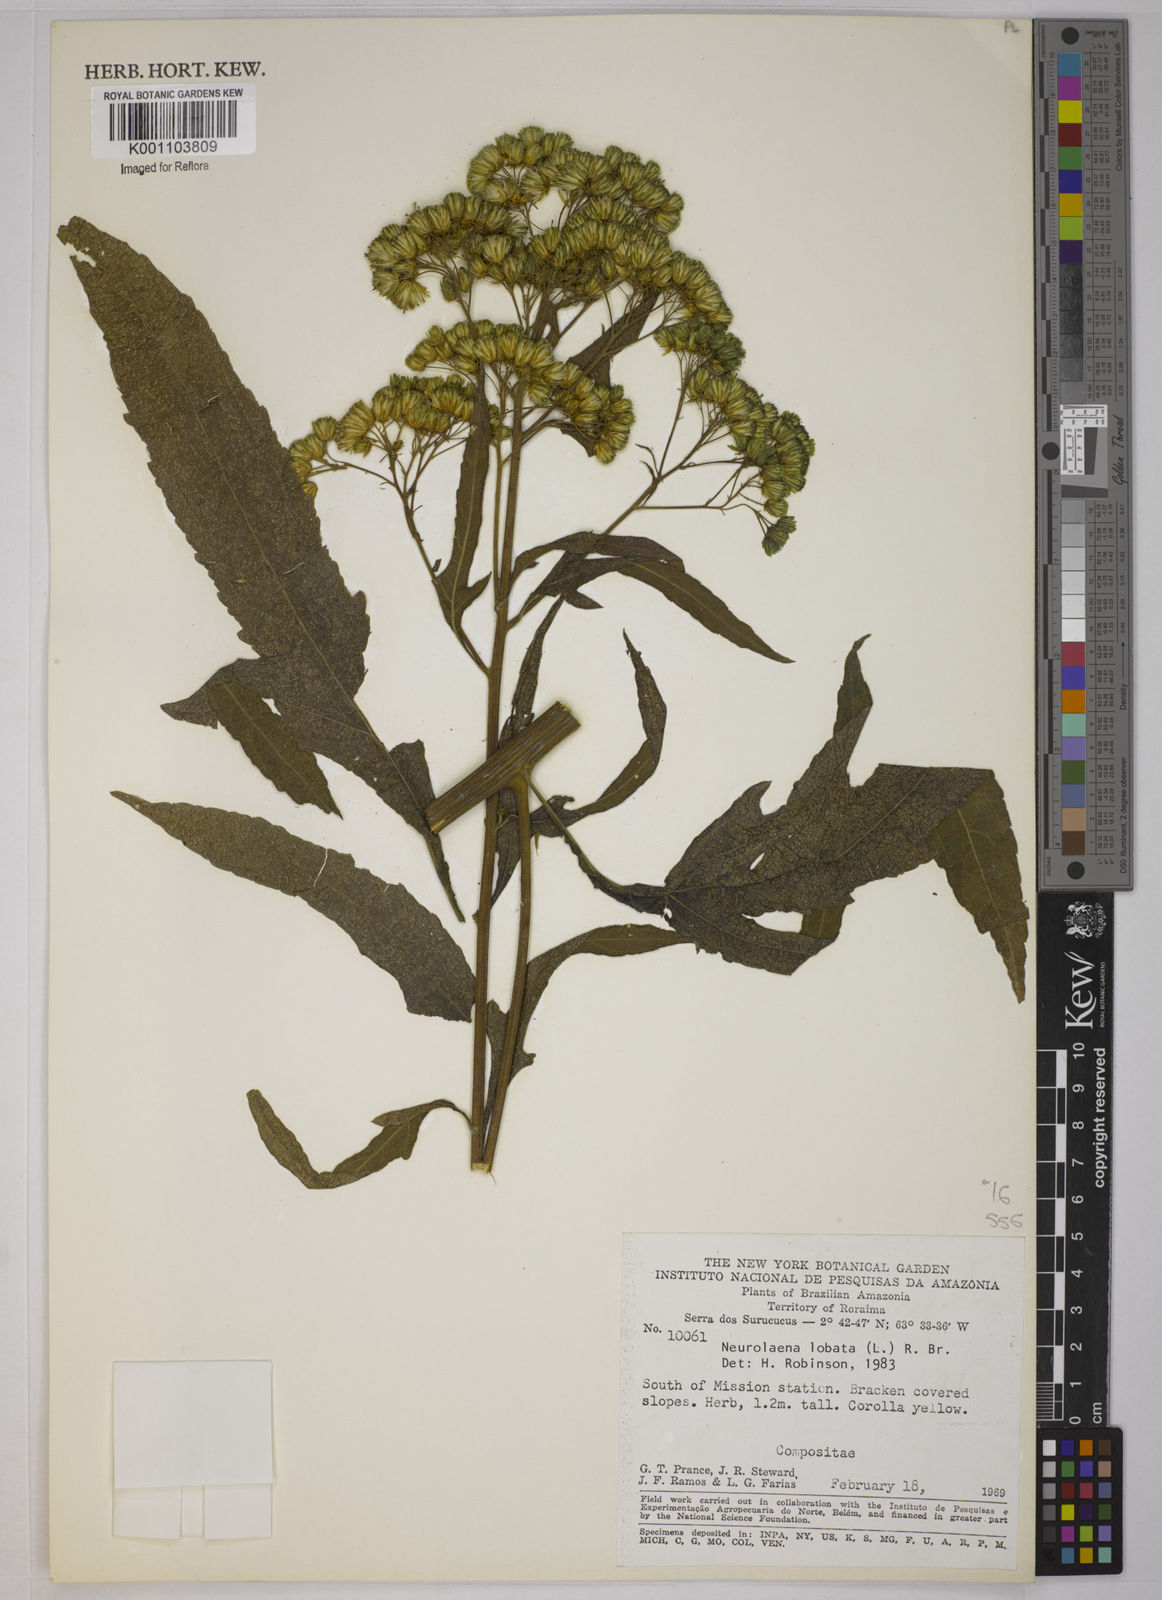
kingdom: Plantae
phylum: Tracheophyta
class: Magnoliopsida
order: Asterales
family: Asteraceae
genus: Neurolaena
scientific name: Neurolaena
